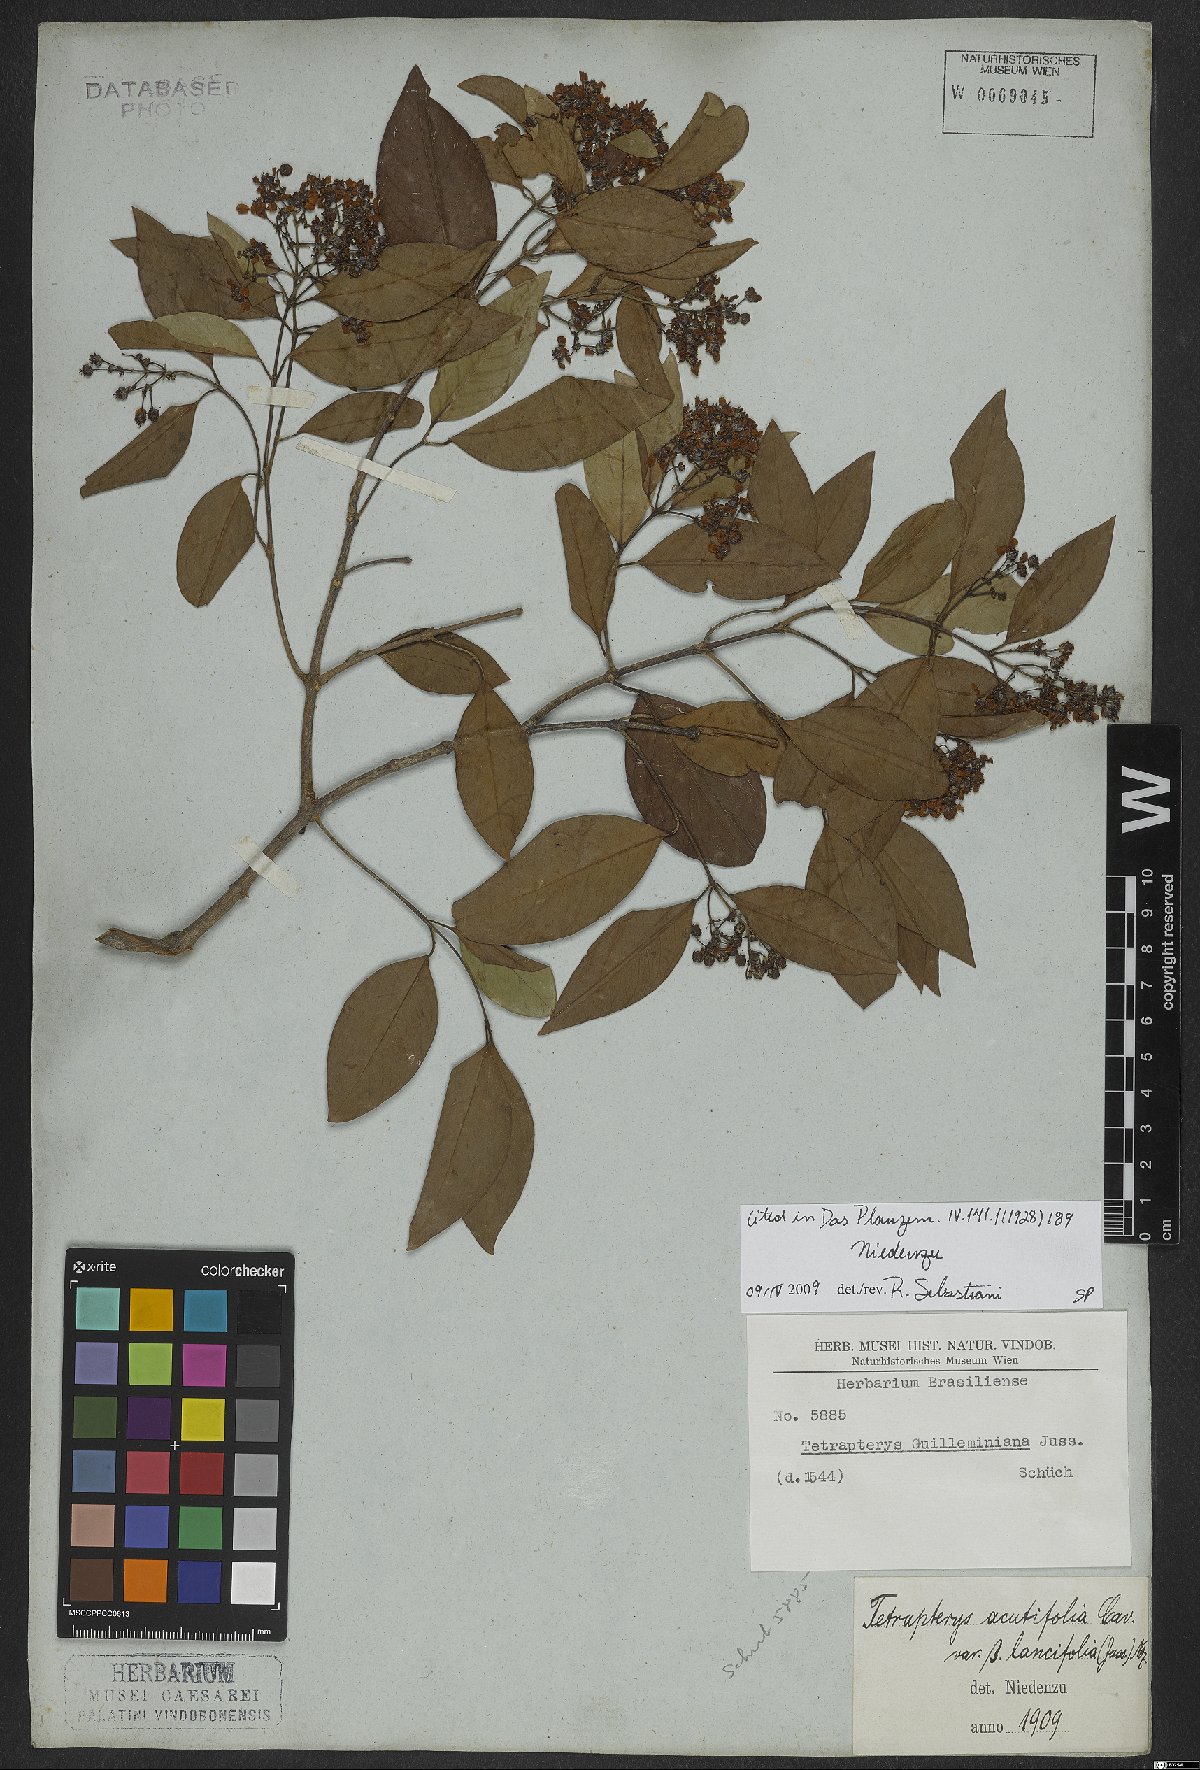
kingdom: Plantae
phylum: Tracheophyta
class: Magnoliopsida
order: Malpighiales
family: Malpighiaceae
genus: Niedenzuella
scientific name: Niedenzuella acutifolia
